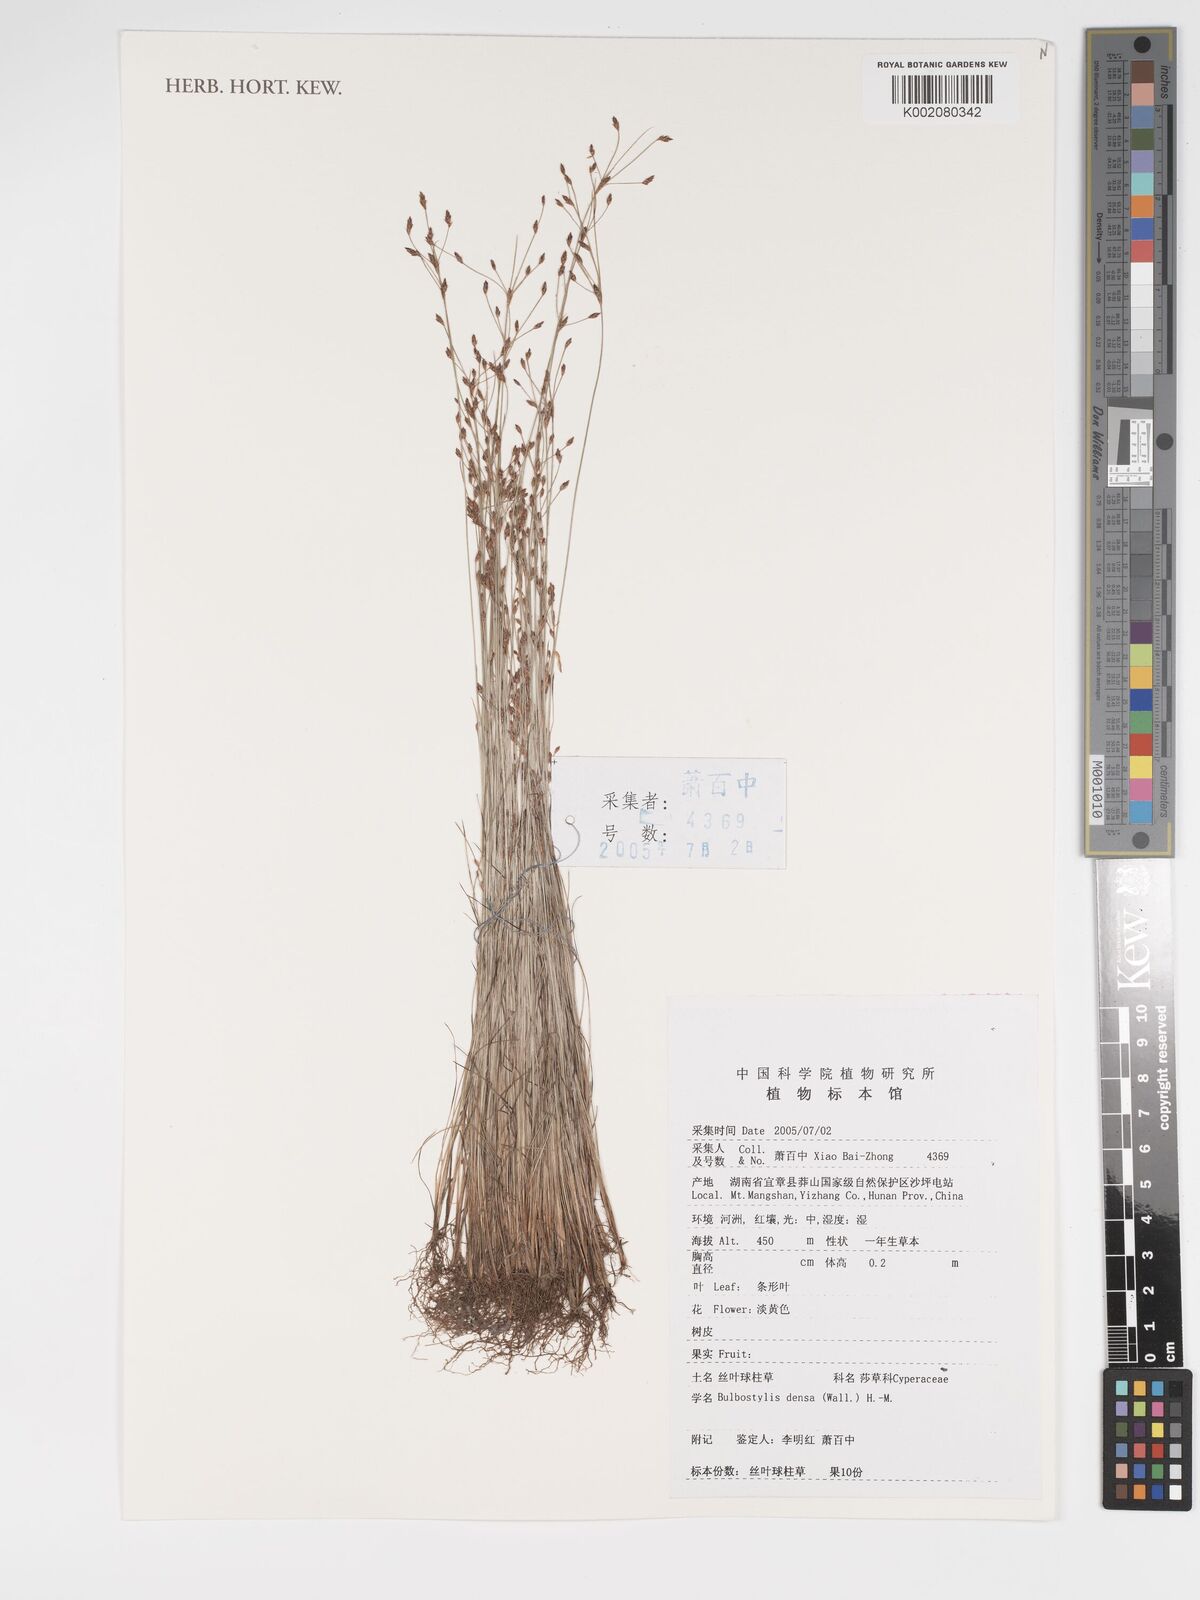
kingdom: Plantae
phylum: Tracheophyta
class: Liliopsida
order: Poales
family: Cyperaceae
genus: Bulbostylis
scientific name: Bulbostylis densa
